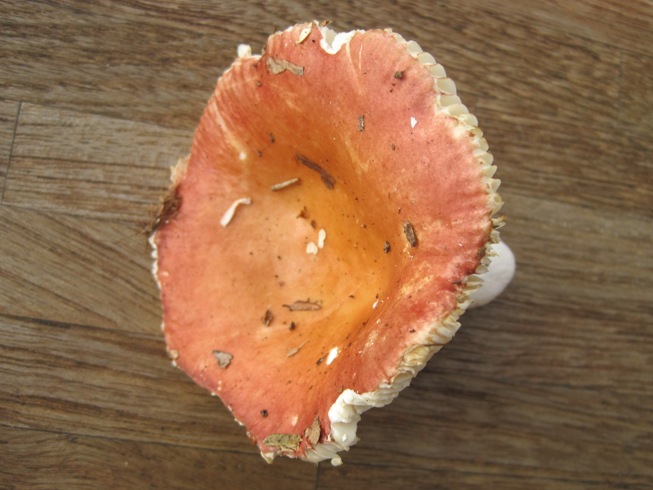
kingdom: Fungi
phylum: Basidiomycota
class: Agaricomycetes
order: Russulales
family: Russulaceae
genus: Russula
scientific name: Russula velenovskyi
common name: orangerød skørhat
